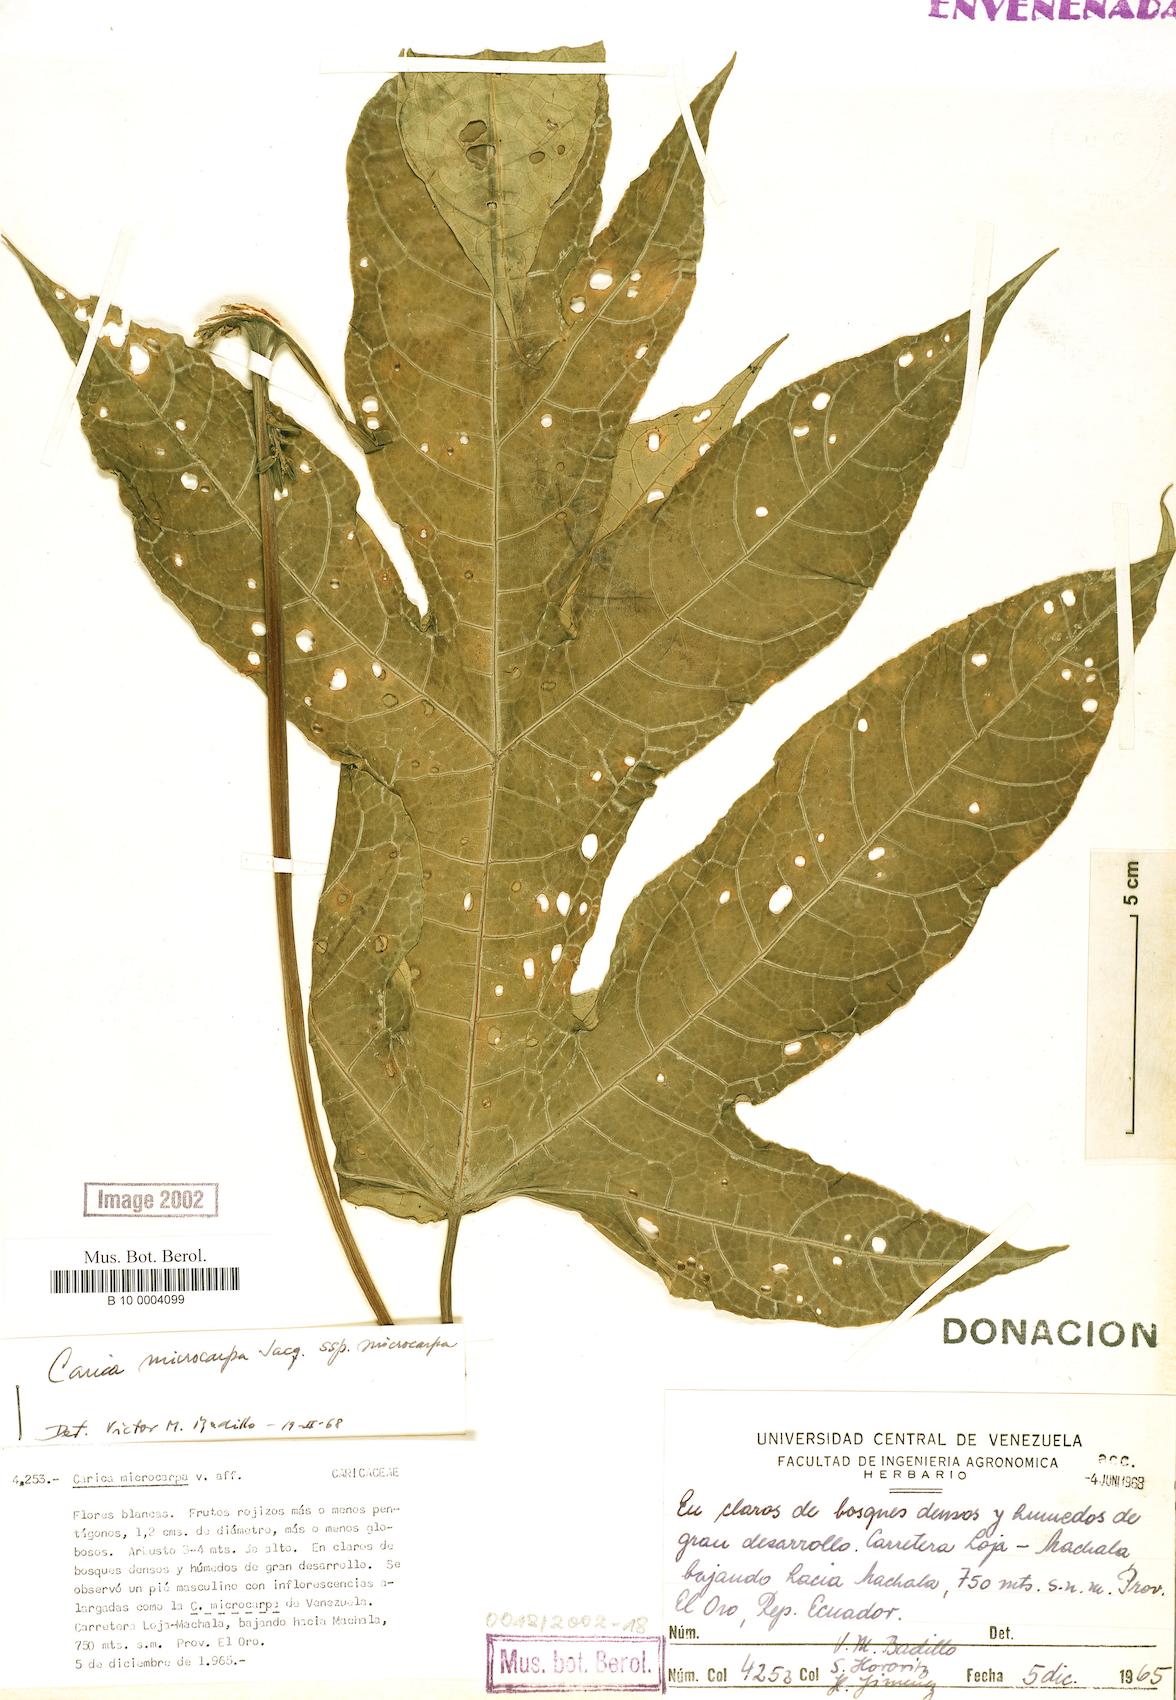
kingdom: Plantae
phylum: Tracheophyta
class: Magnoliopsida
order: Brassicales
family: Caricaceae
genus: Vasconcellea
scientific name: Vasconcellea microcarpa
